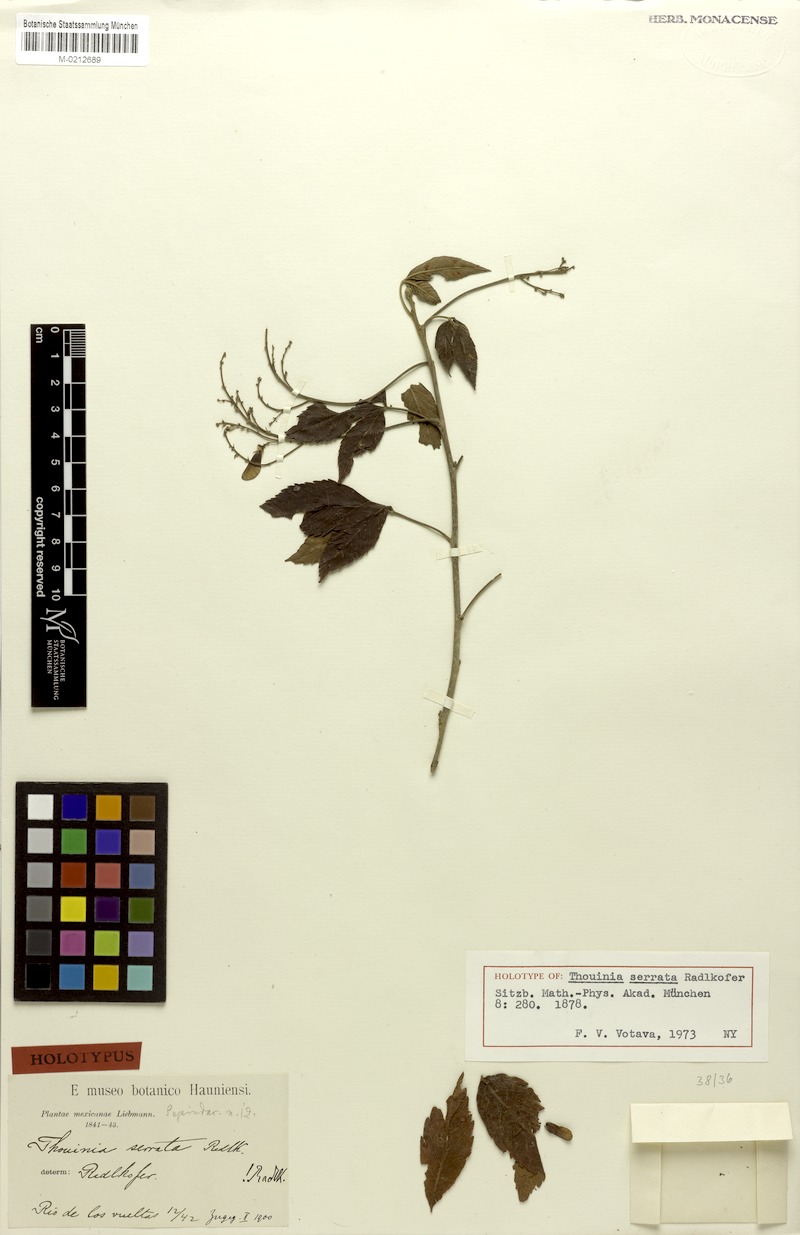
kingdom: Plantae
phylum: Tracheophyta
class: Magnoliopsida
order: Sapindales
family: Sapindaceae
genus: Thouinia
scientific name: Thouinia serrata
